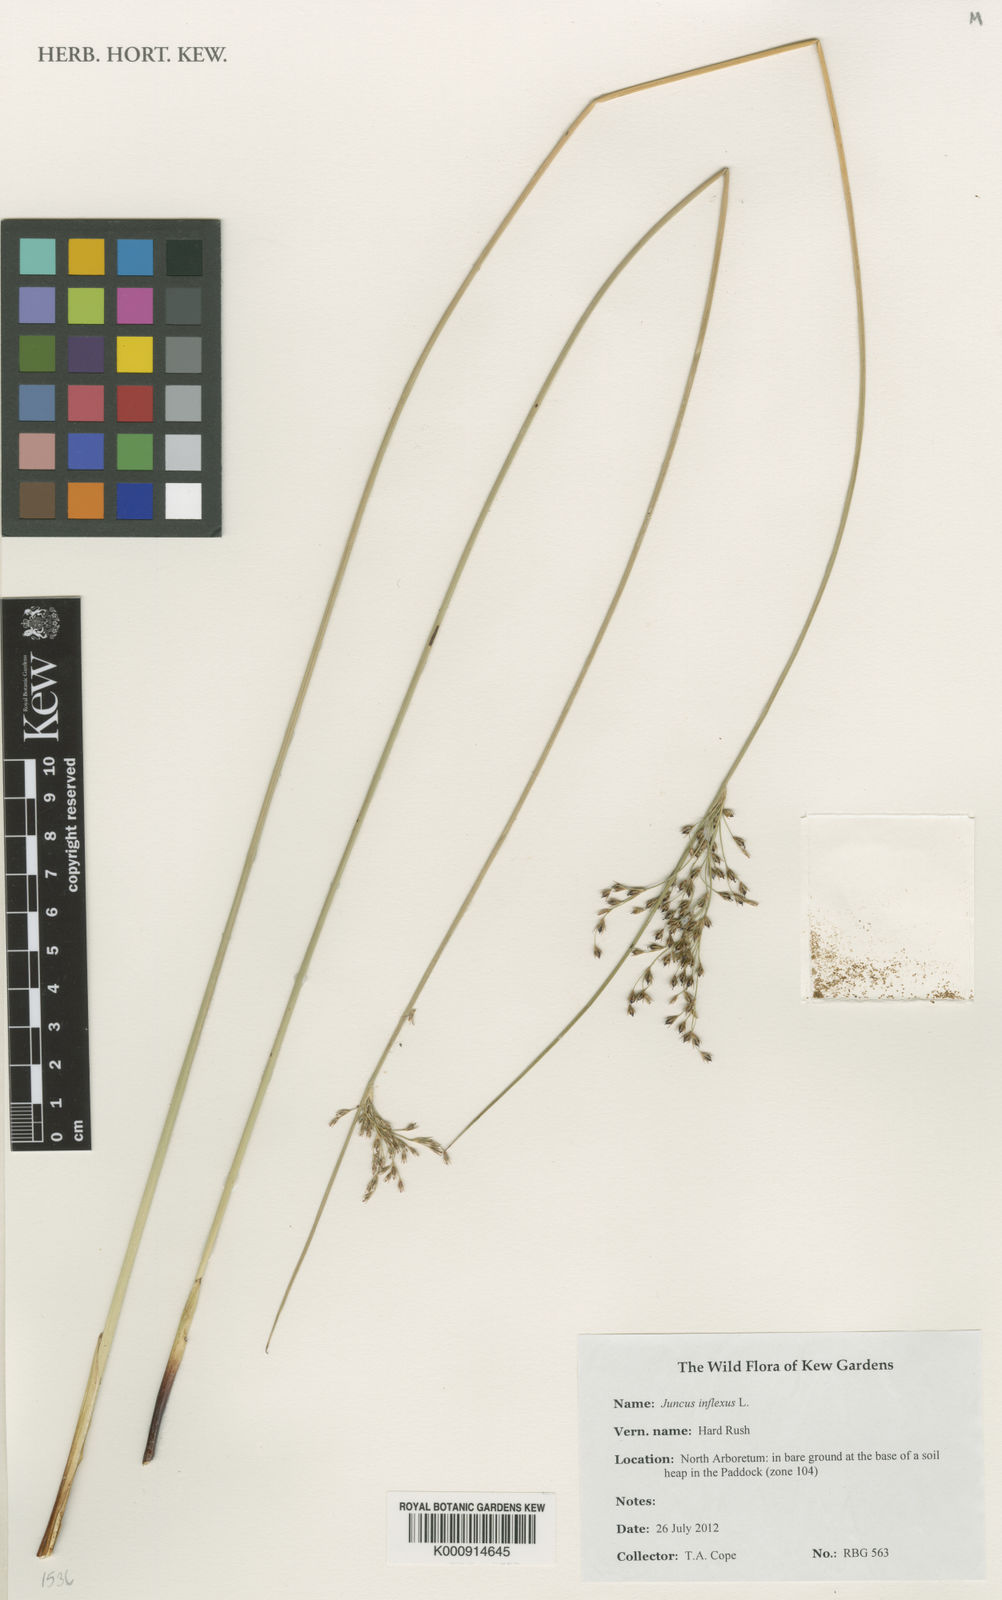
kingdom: Plantae
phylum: Tracheophyta
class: Liliopsida
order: Poales
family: Juncaceae
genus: Juncus
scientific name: Juncus inflexus
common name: Hard rush
